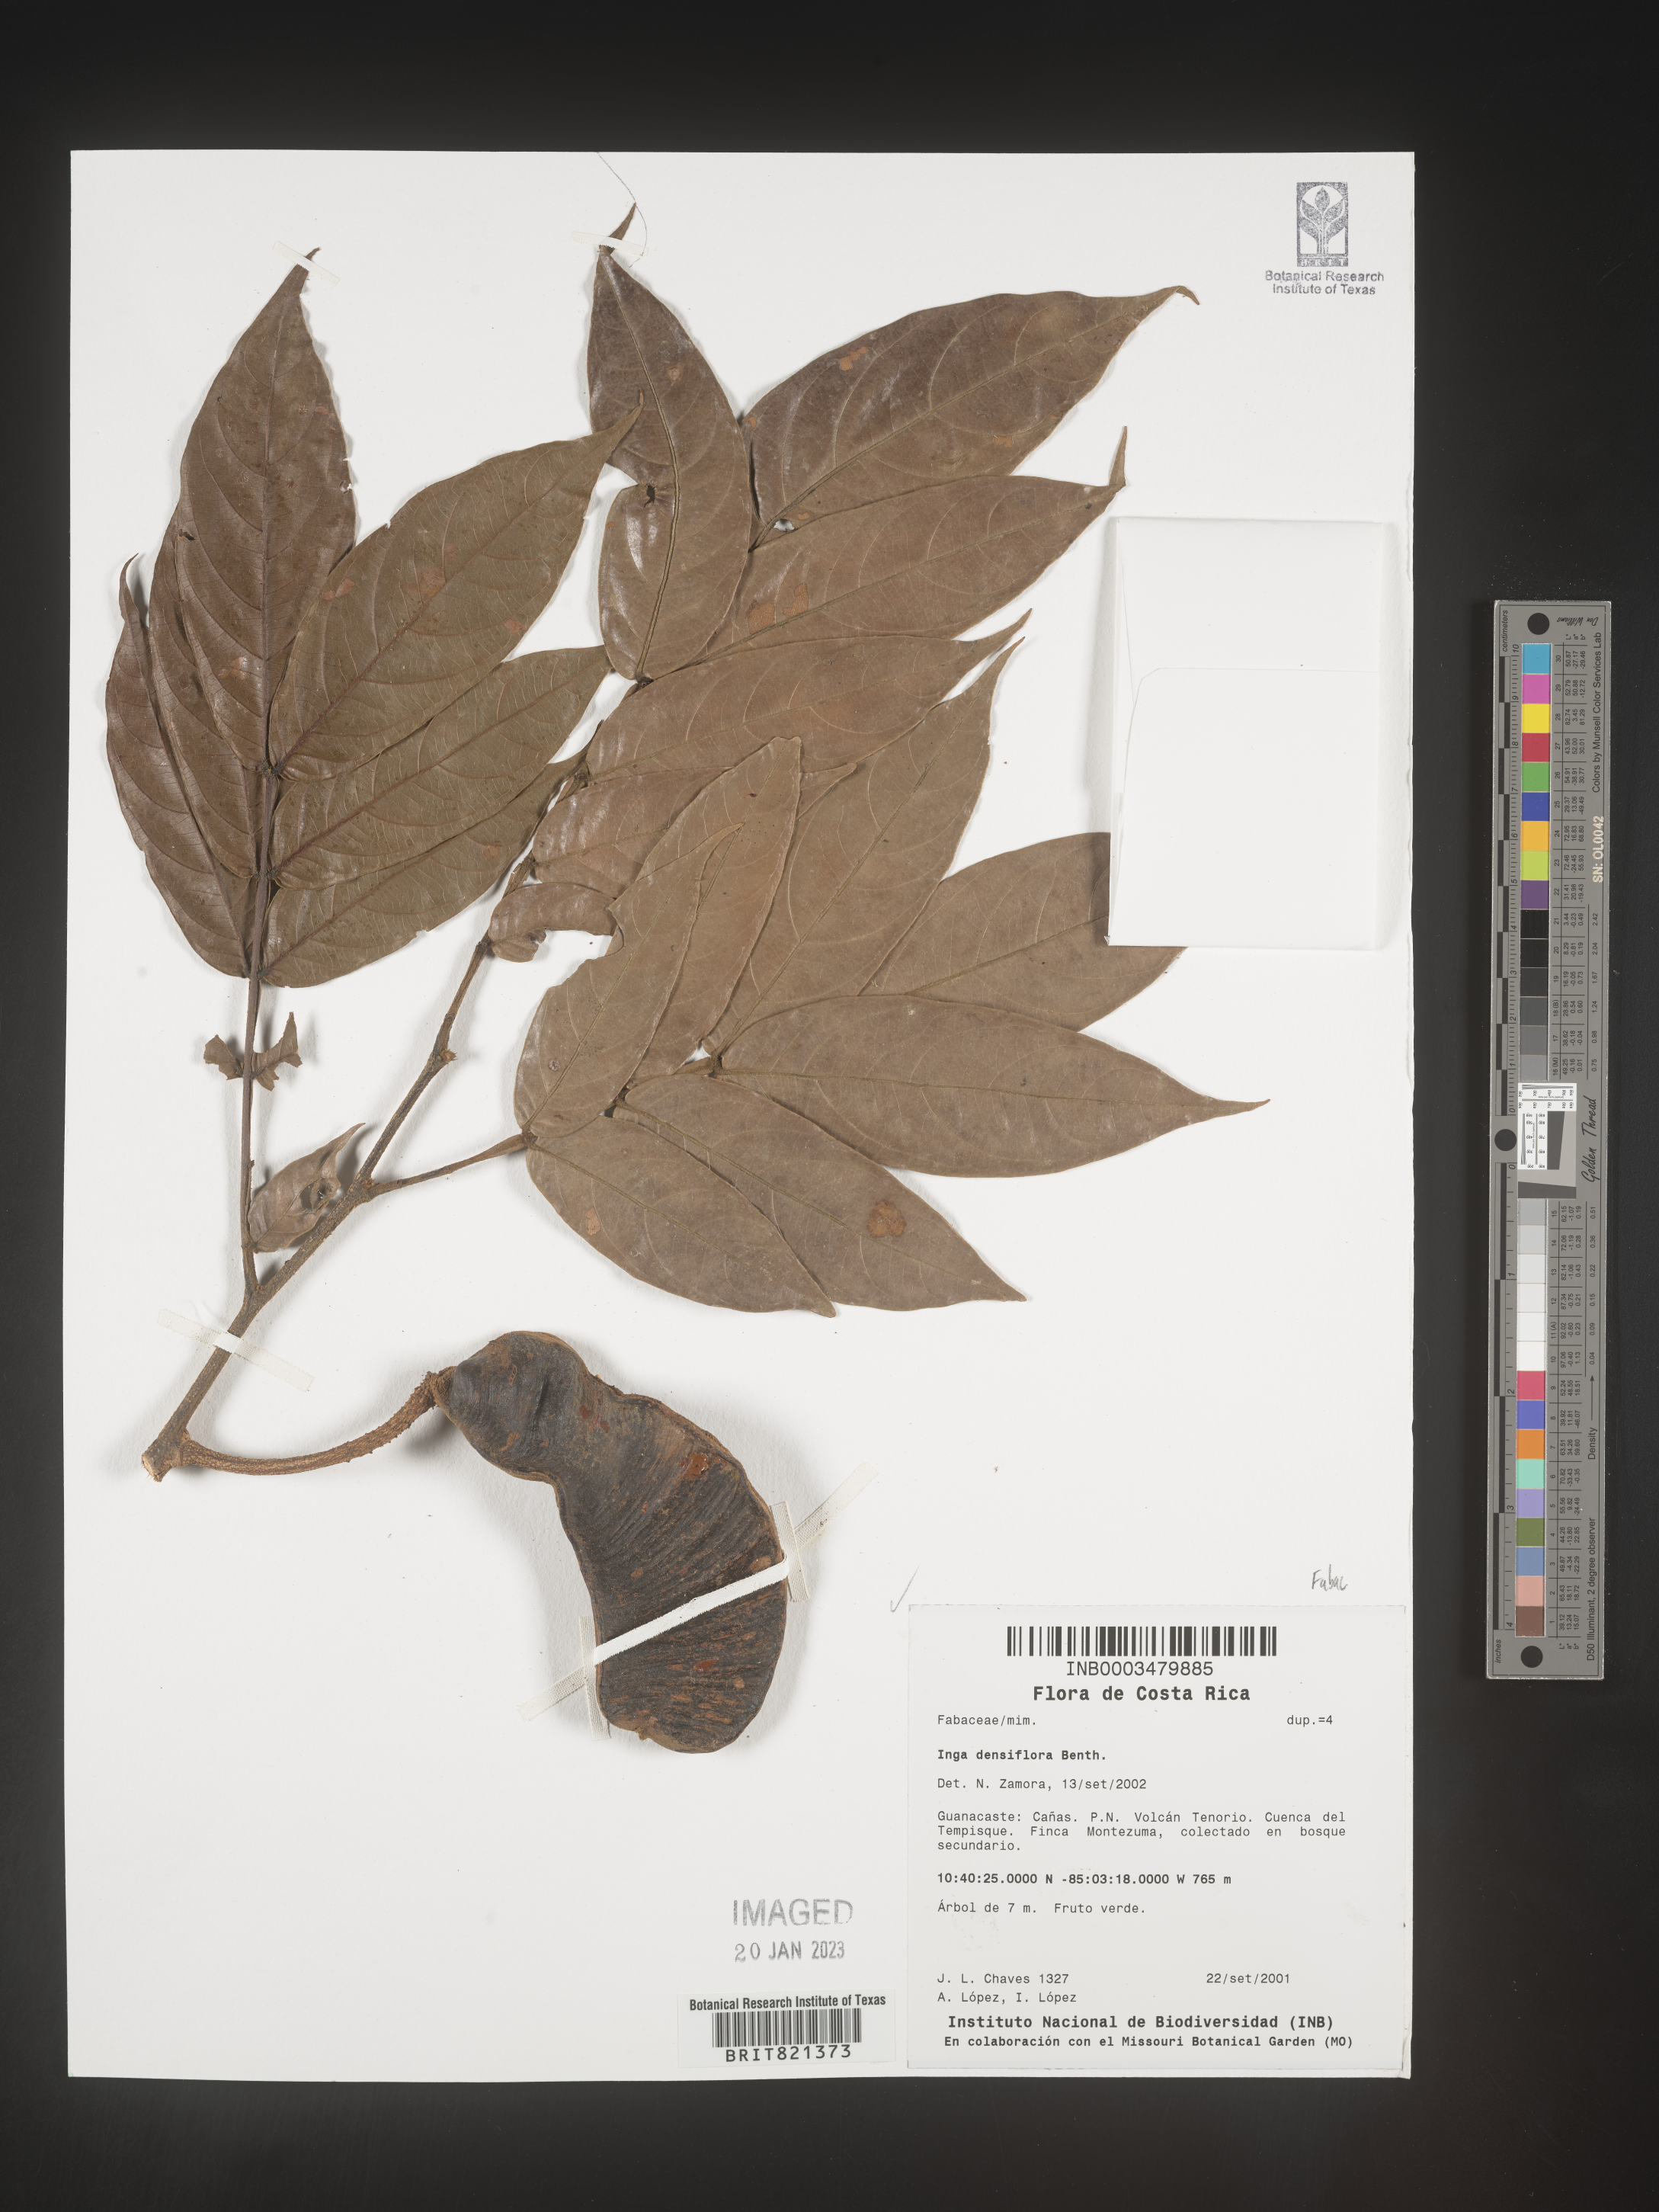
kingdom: Plantae
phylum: Tracheophyta
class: Magnoliopsida
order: Fabales
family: Fabaceae
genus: Inga
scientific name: Inga
